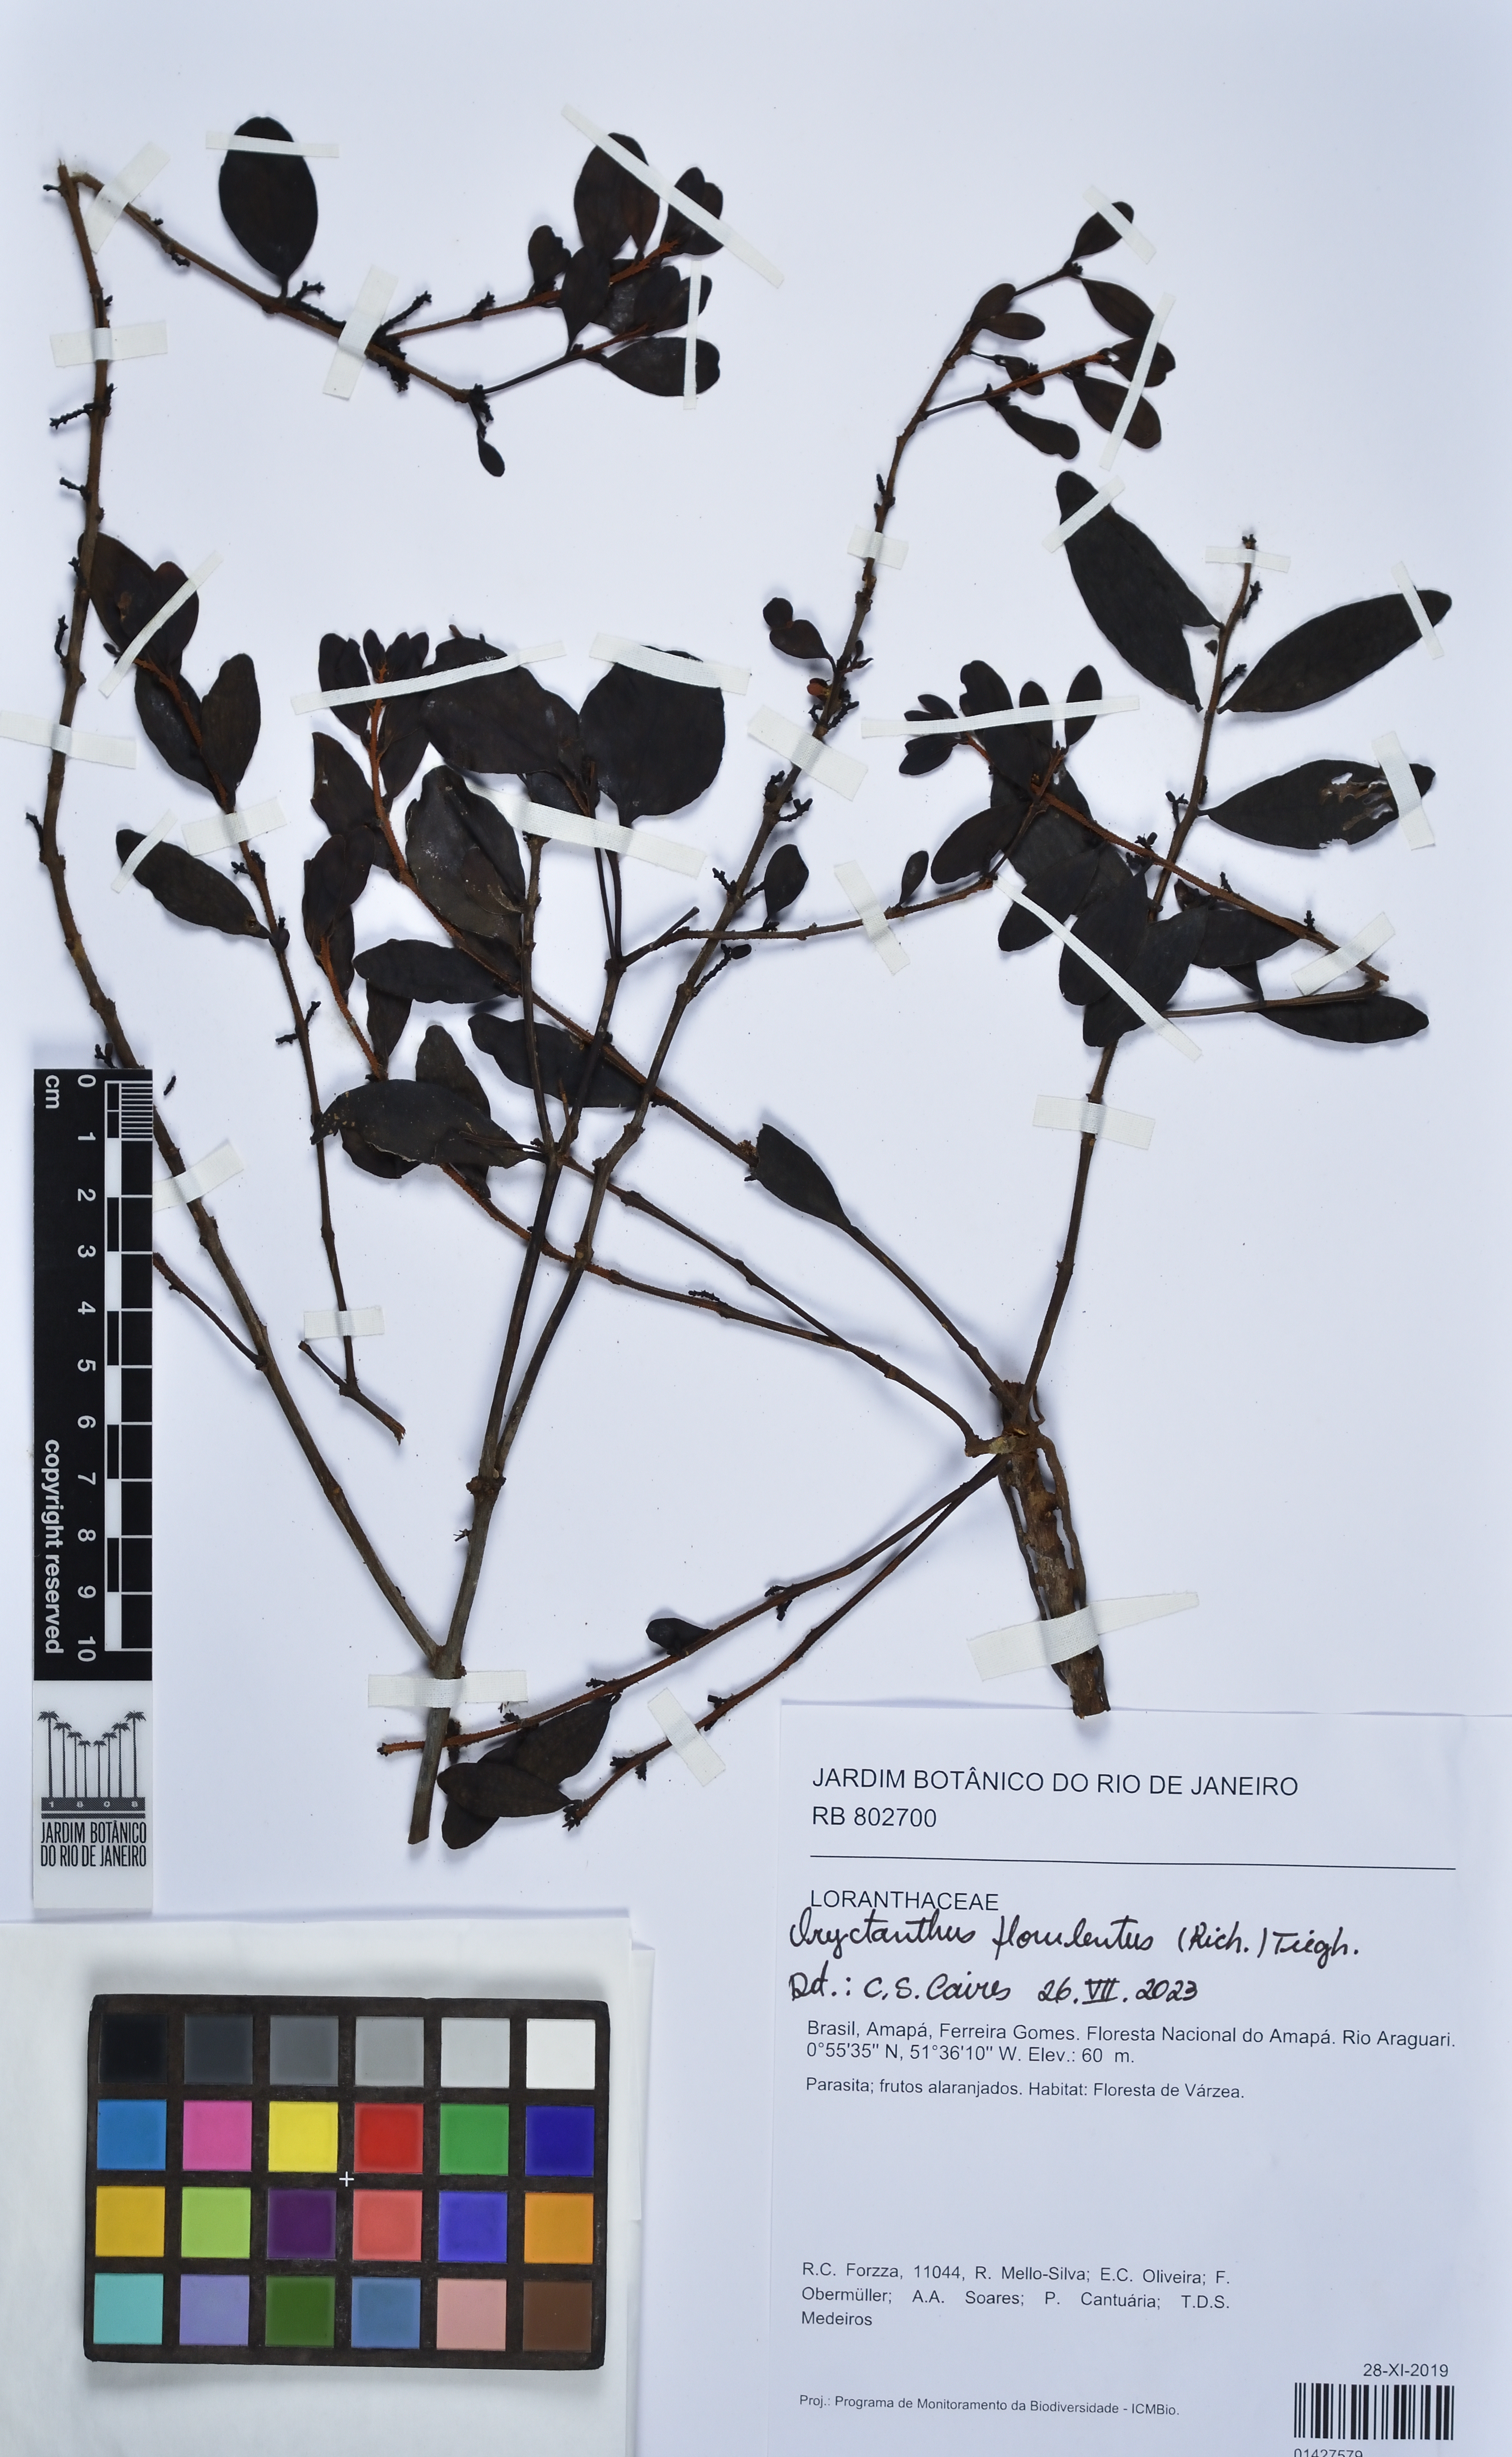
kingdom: Plantae
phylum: Tracheophyta
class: Magnoliopsida
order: Santalales
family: Loranthaceae
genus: Oryctanthus
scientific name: Oryctanthus florulentus
